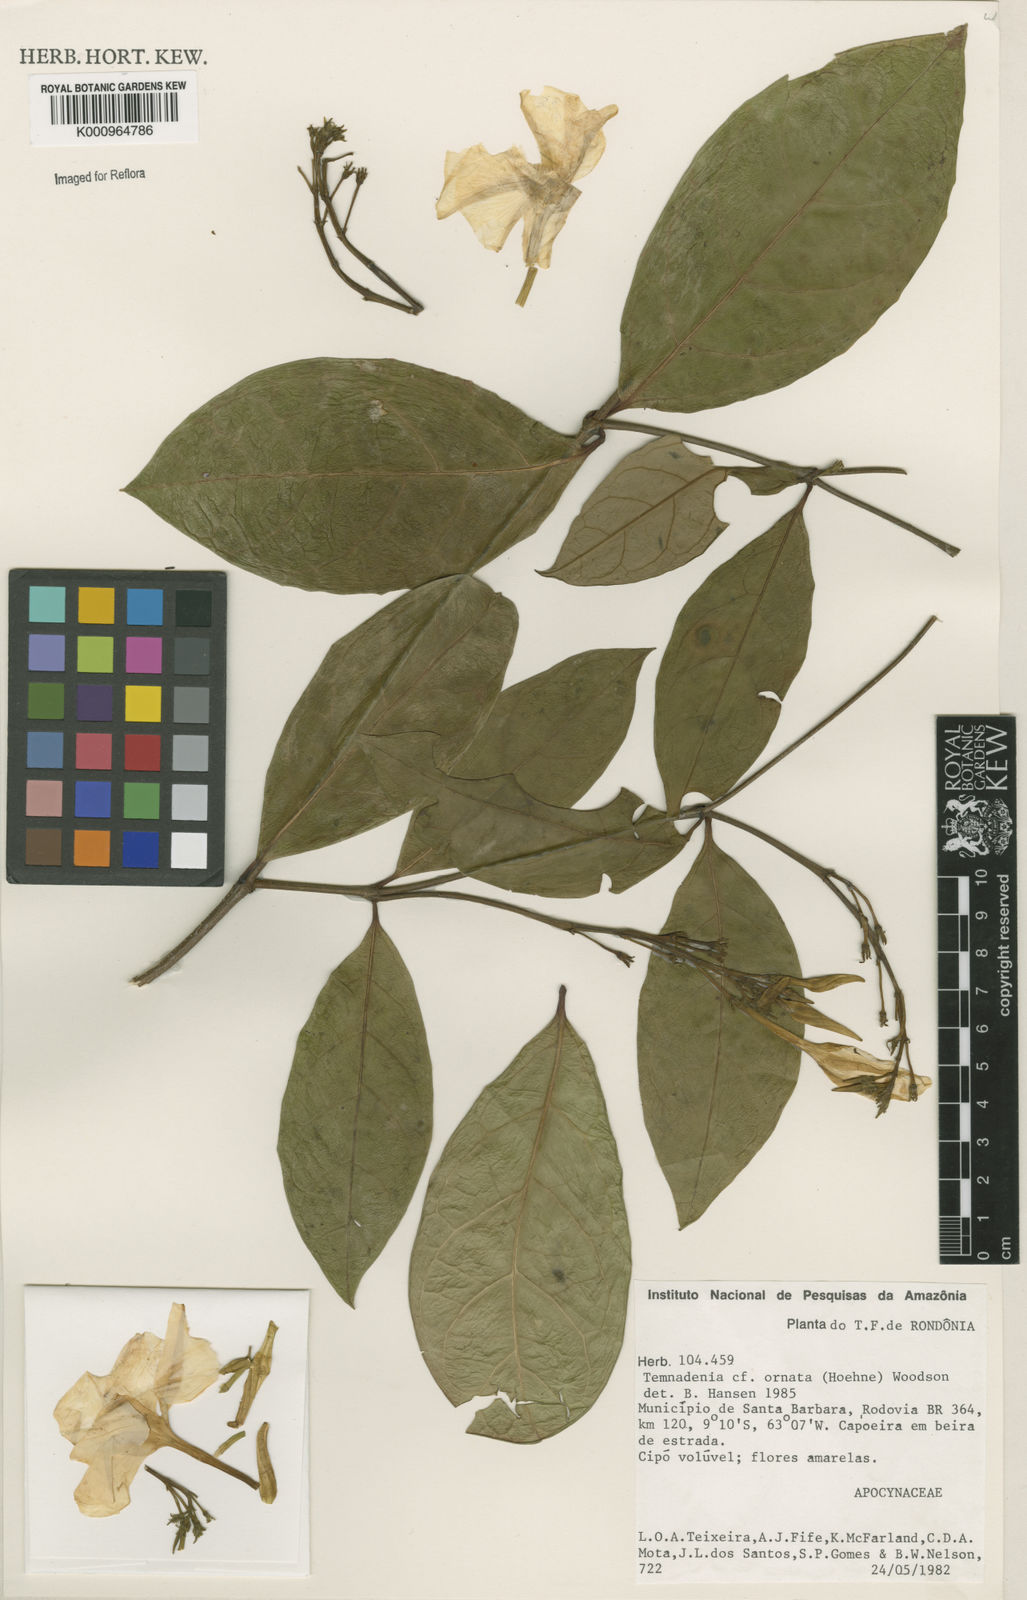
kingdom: Plantae
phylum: Tracheophyta
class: Magnoliopsida
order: Gentianales
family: Apocynaceae
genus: Prestonia
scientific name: Prestonia ornata
